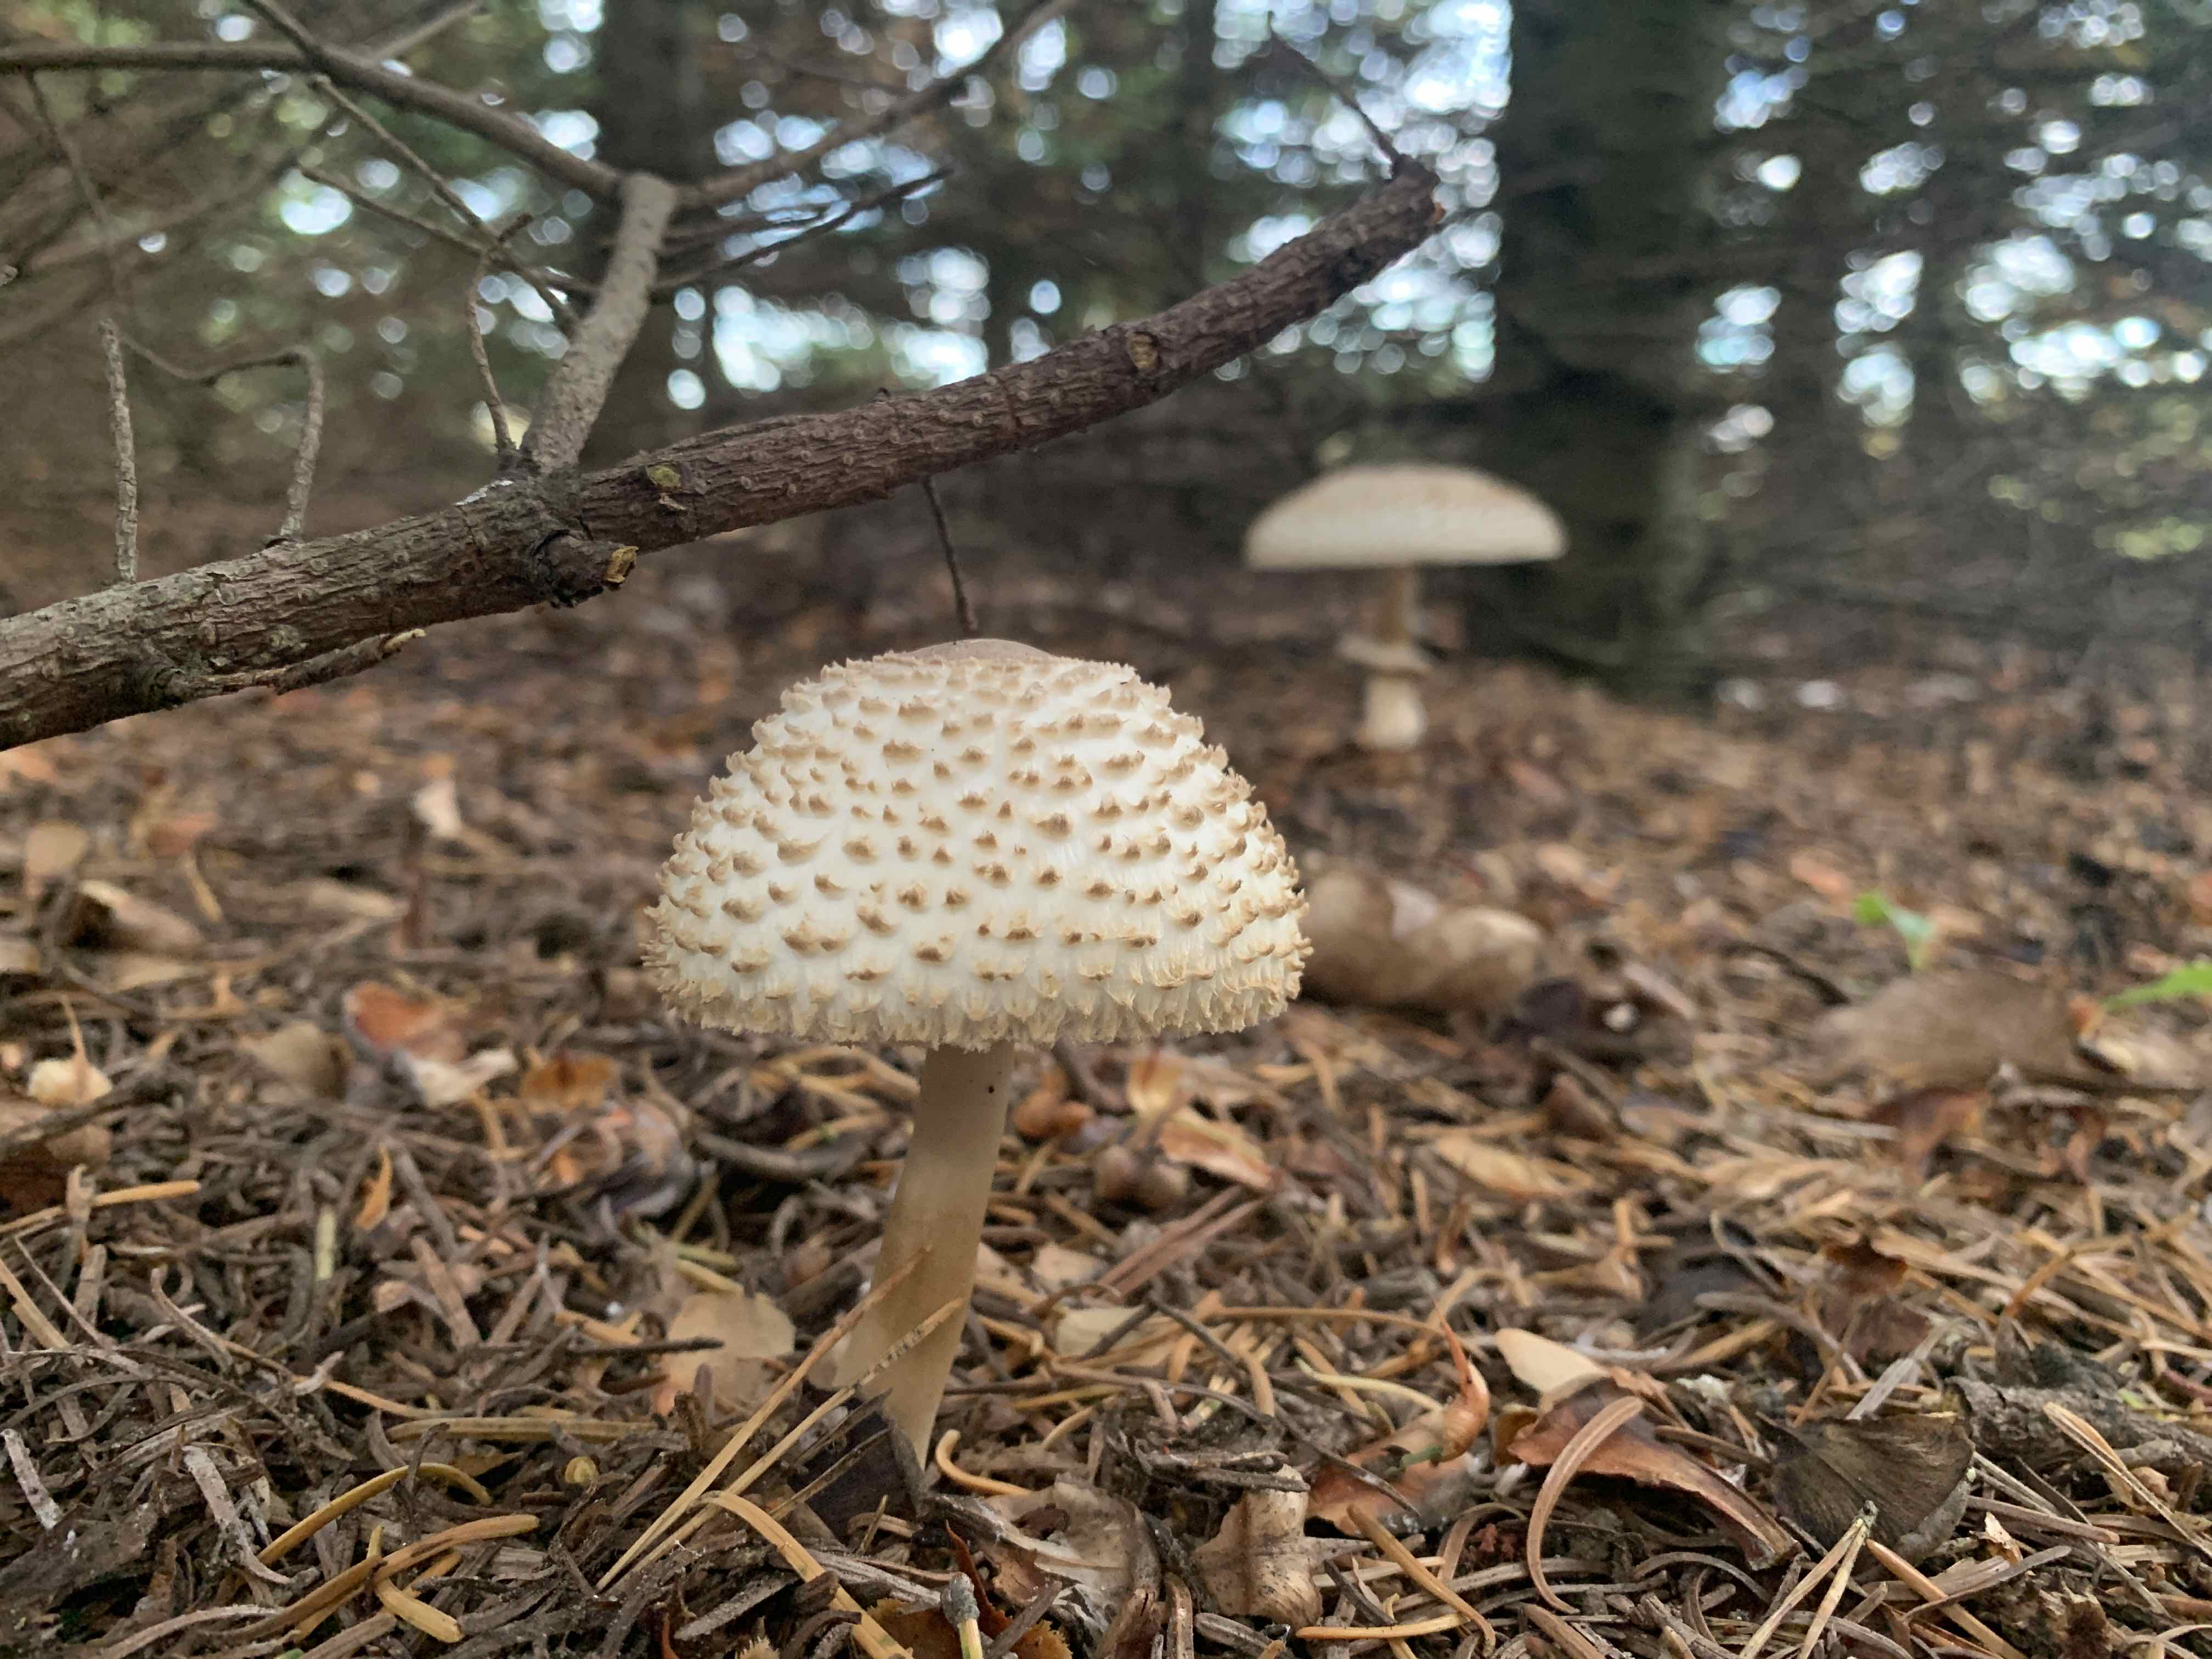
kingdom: Fungi
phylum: Basidiomycota
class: Agaricomycetes
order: Agaricales
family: Agaricaceae
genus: Leucoagaricus
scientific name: Leucoagaricus nympharum
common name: gran-silkehat
